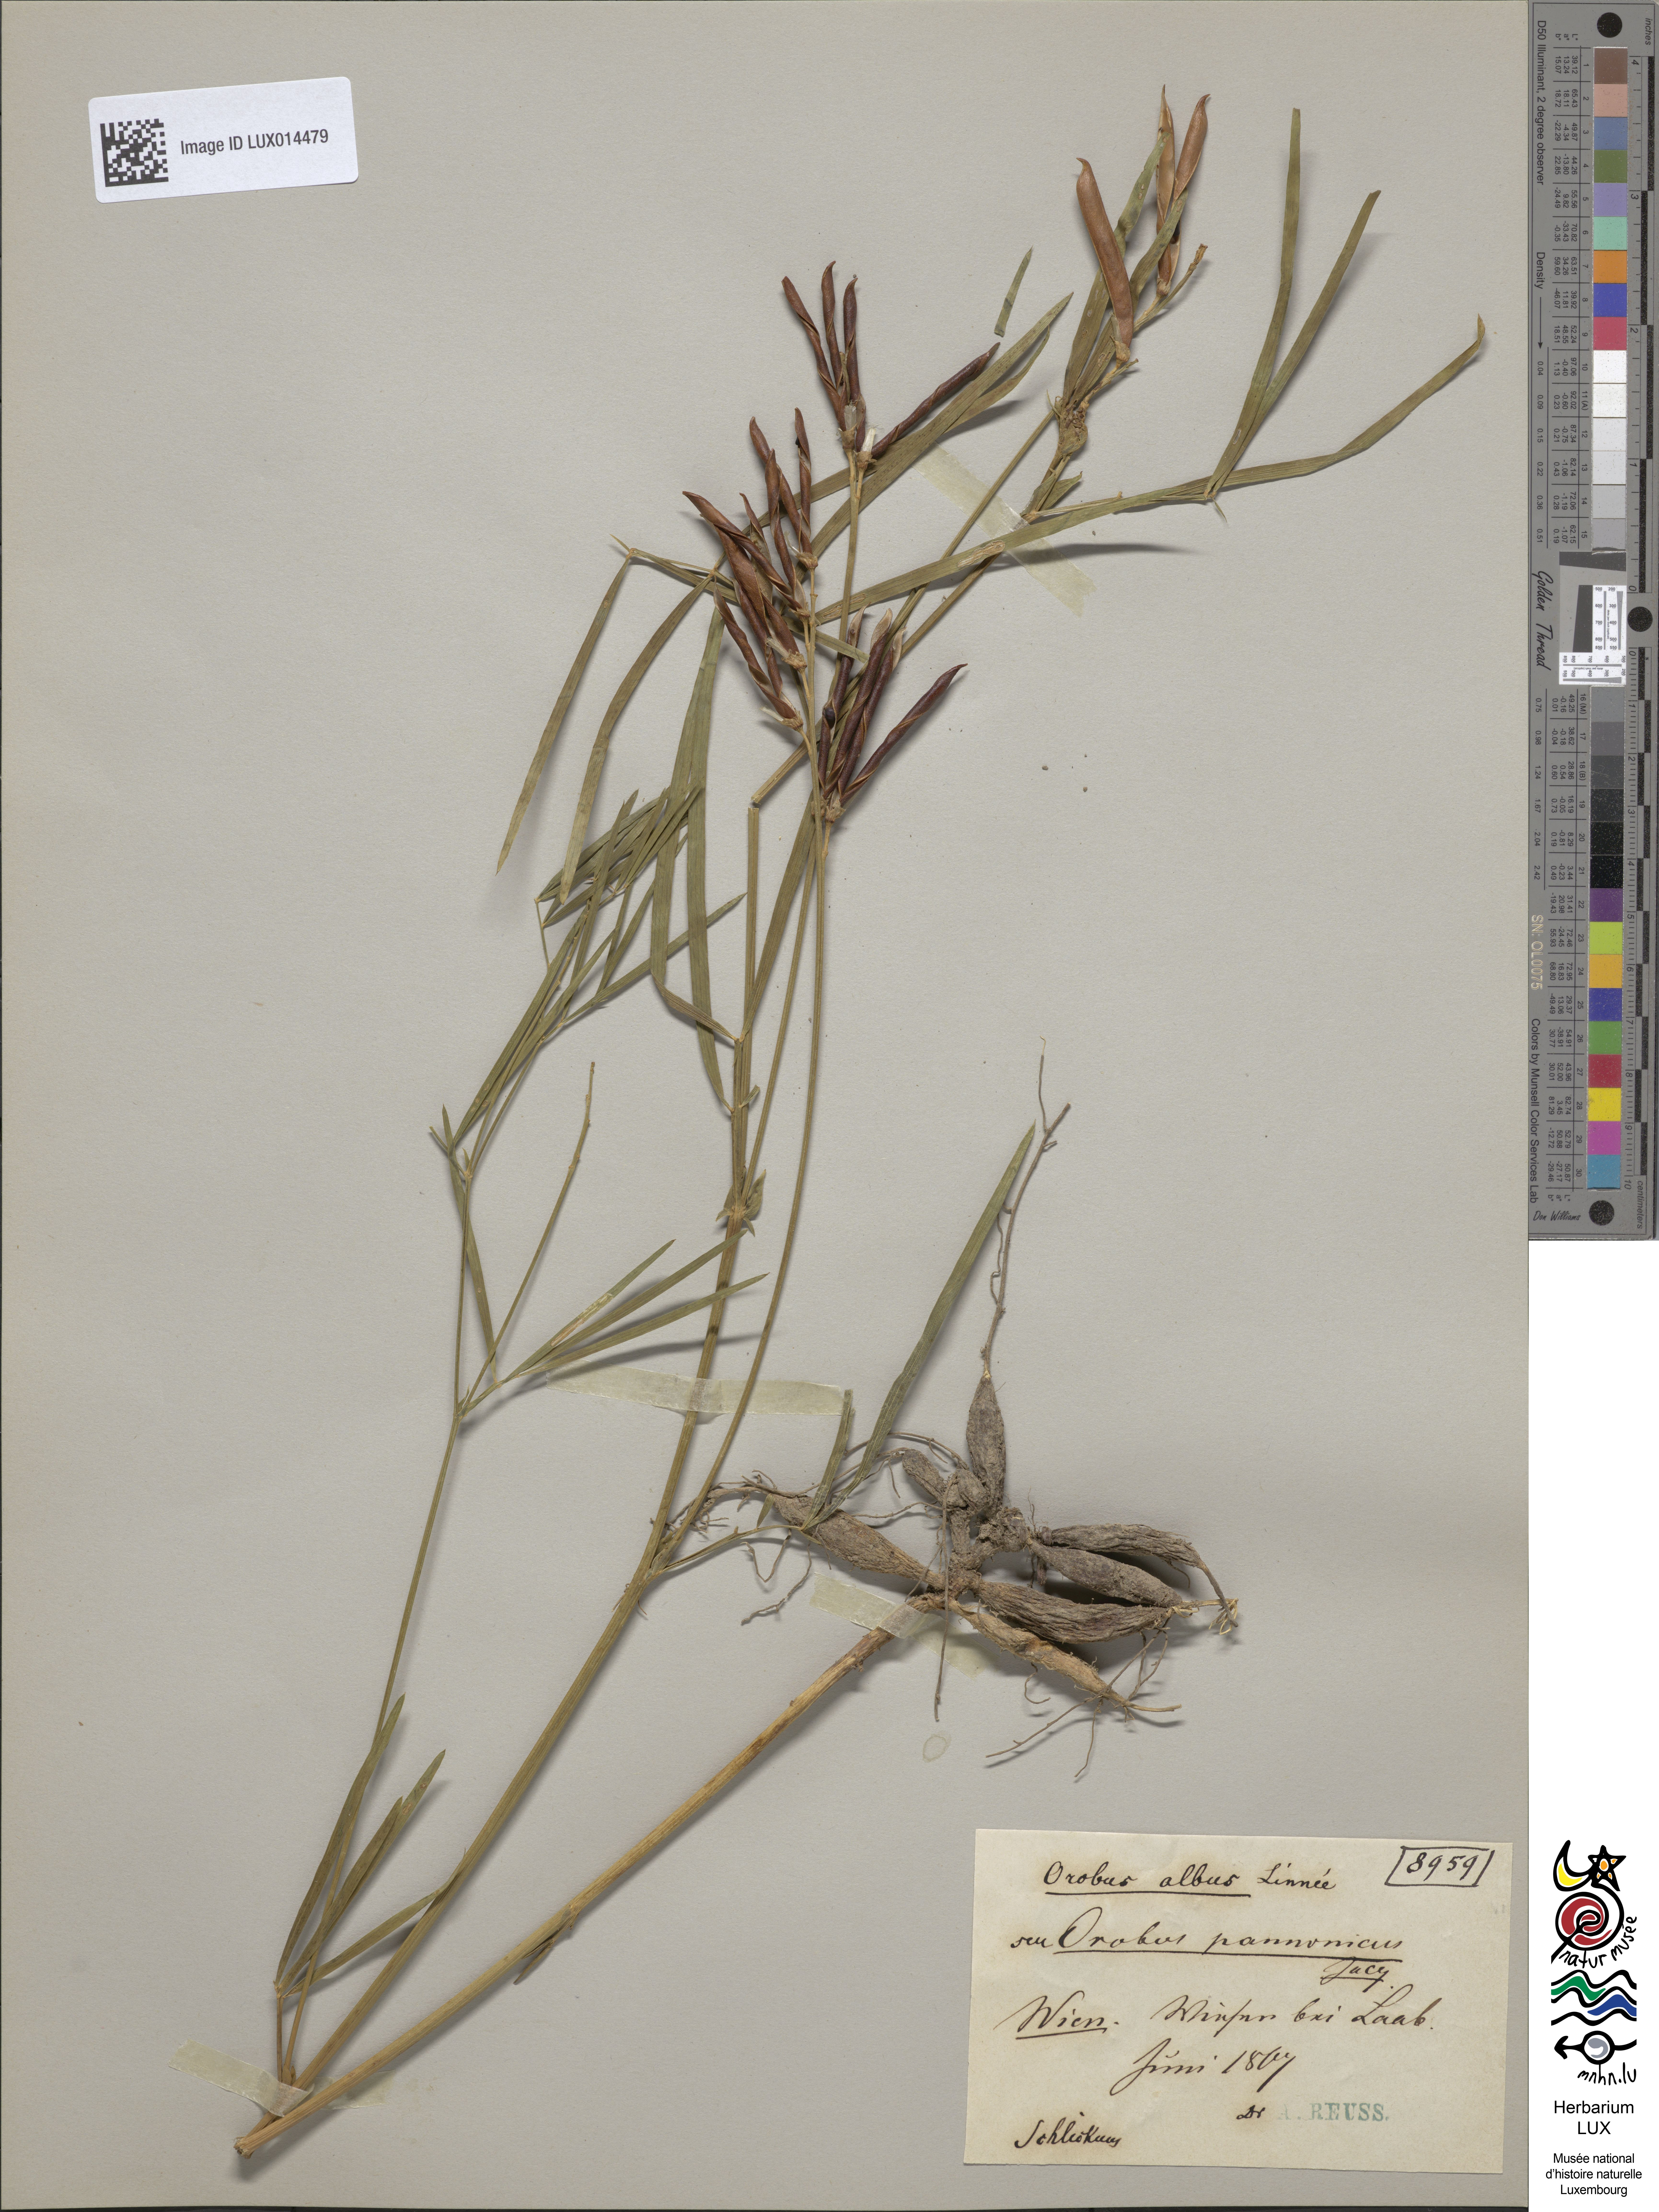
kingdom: Plantae
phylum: Tracheophyta
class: Magnoliopsida
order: Fabales
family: Fabaceae
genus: Lathyrus
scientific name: Lathyrus pannonicus
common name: Pea
